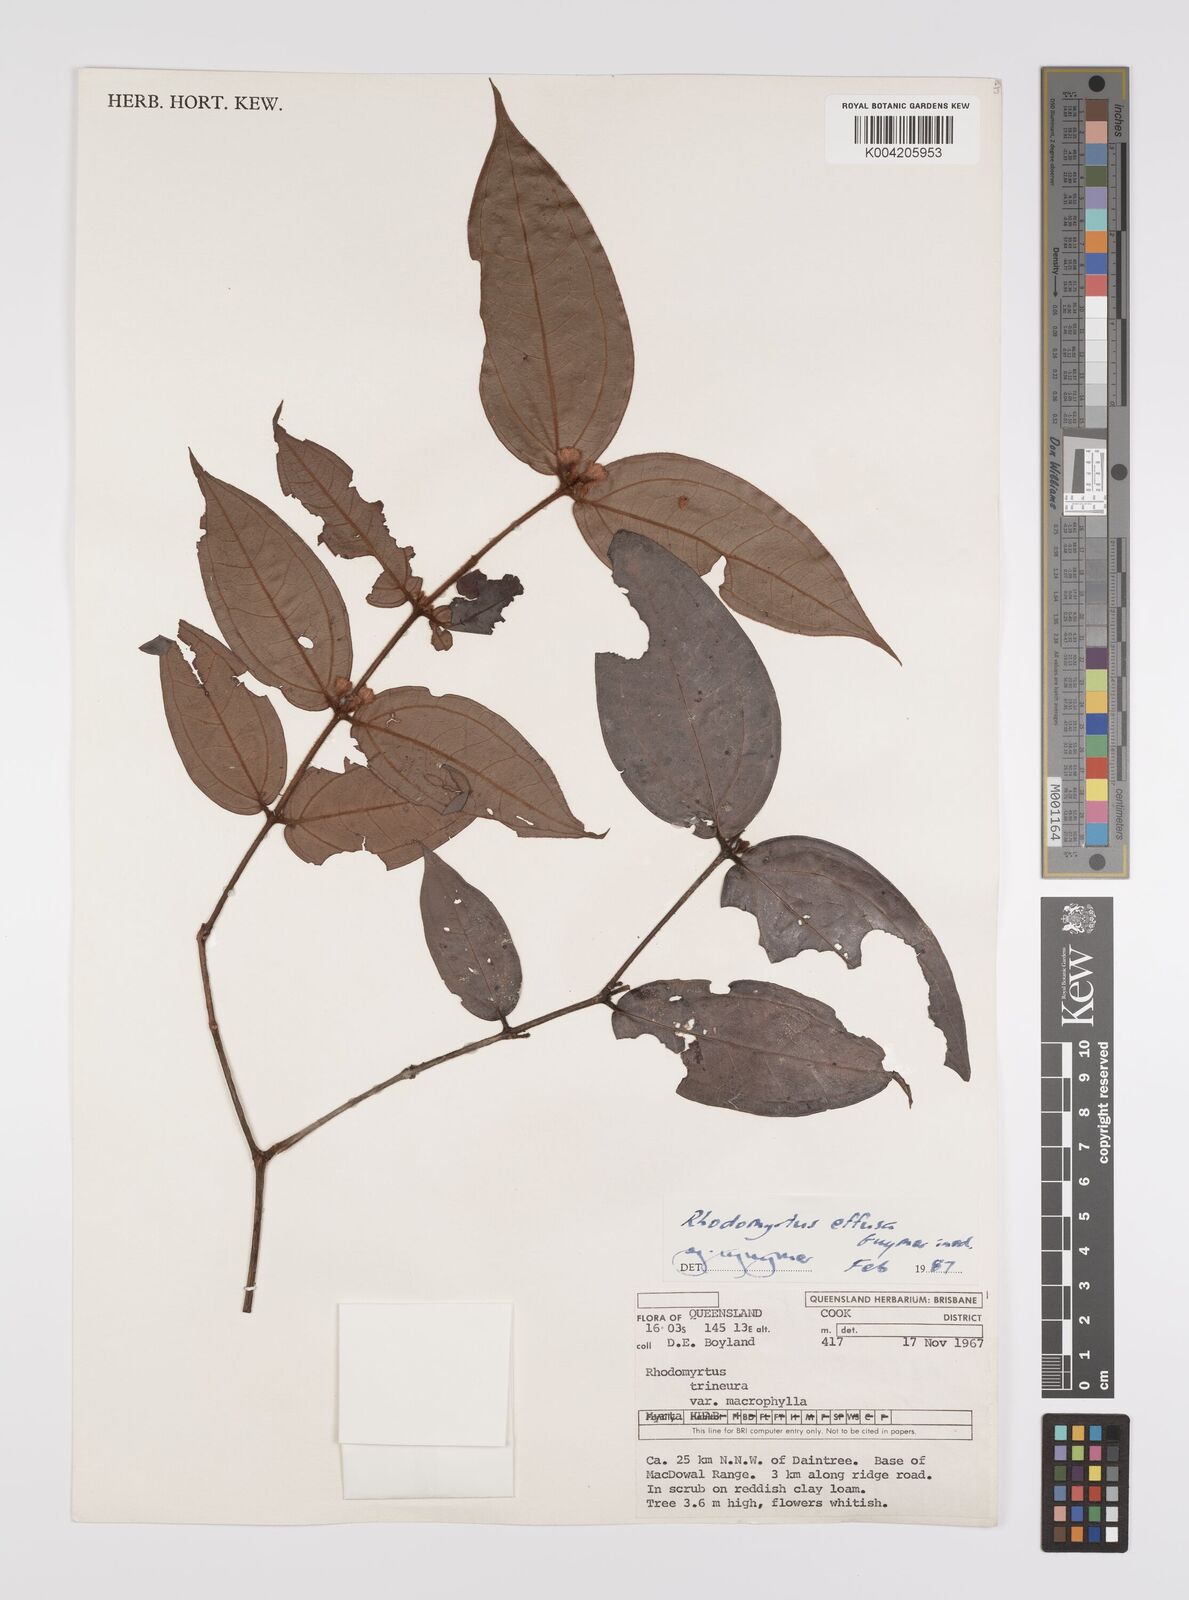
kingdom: Plantae
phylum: Tracheophyta
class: Magnoliopsida
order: Myrtales
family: Myrtaceae
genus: Rhodomyrtus
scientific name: Rhodomyrtus effusa
